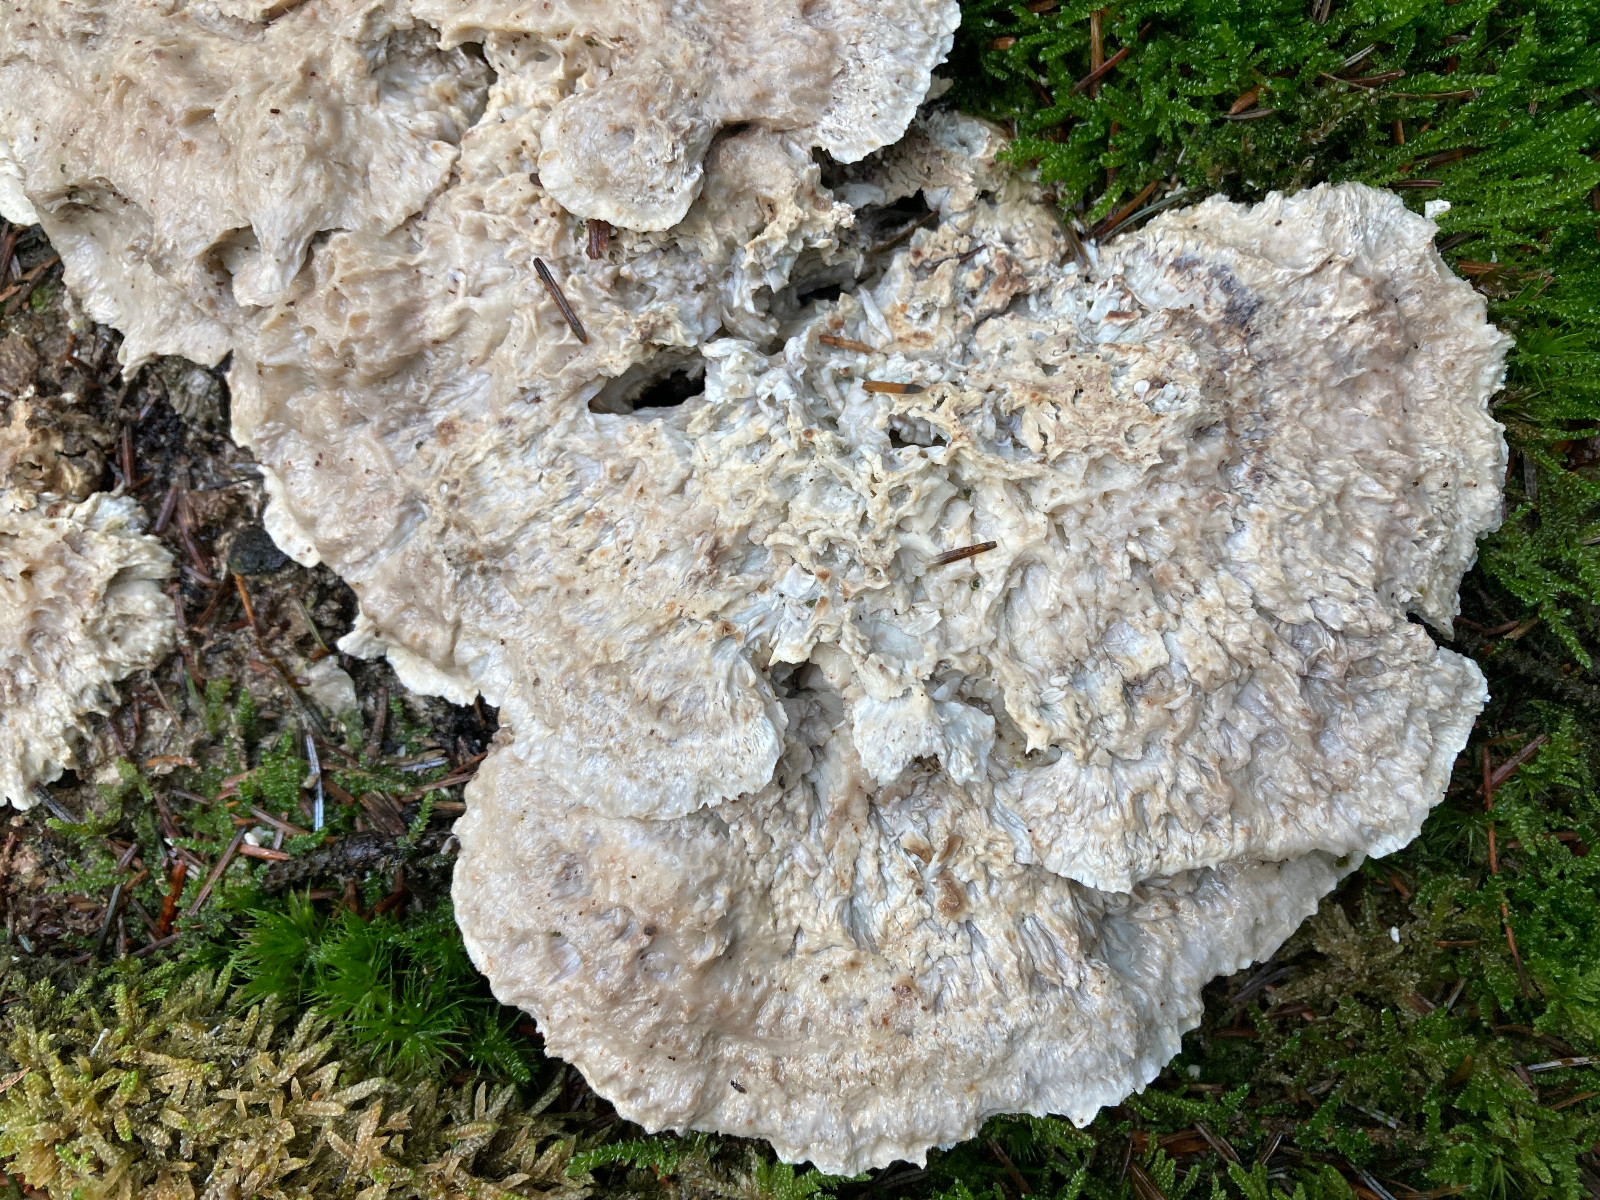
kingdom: Fungi
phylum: Basidiomycota
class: Agaricomycetes
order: Polyporales
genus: Calcipostia
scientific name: Calcipostia guttulata
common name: dråbe-kødporesvamp
